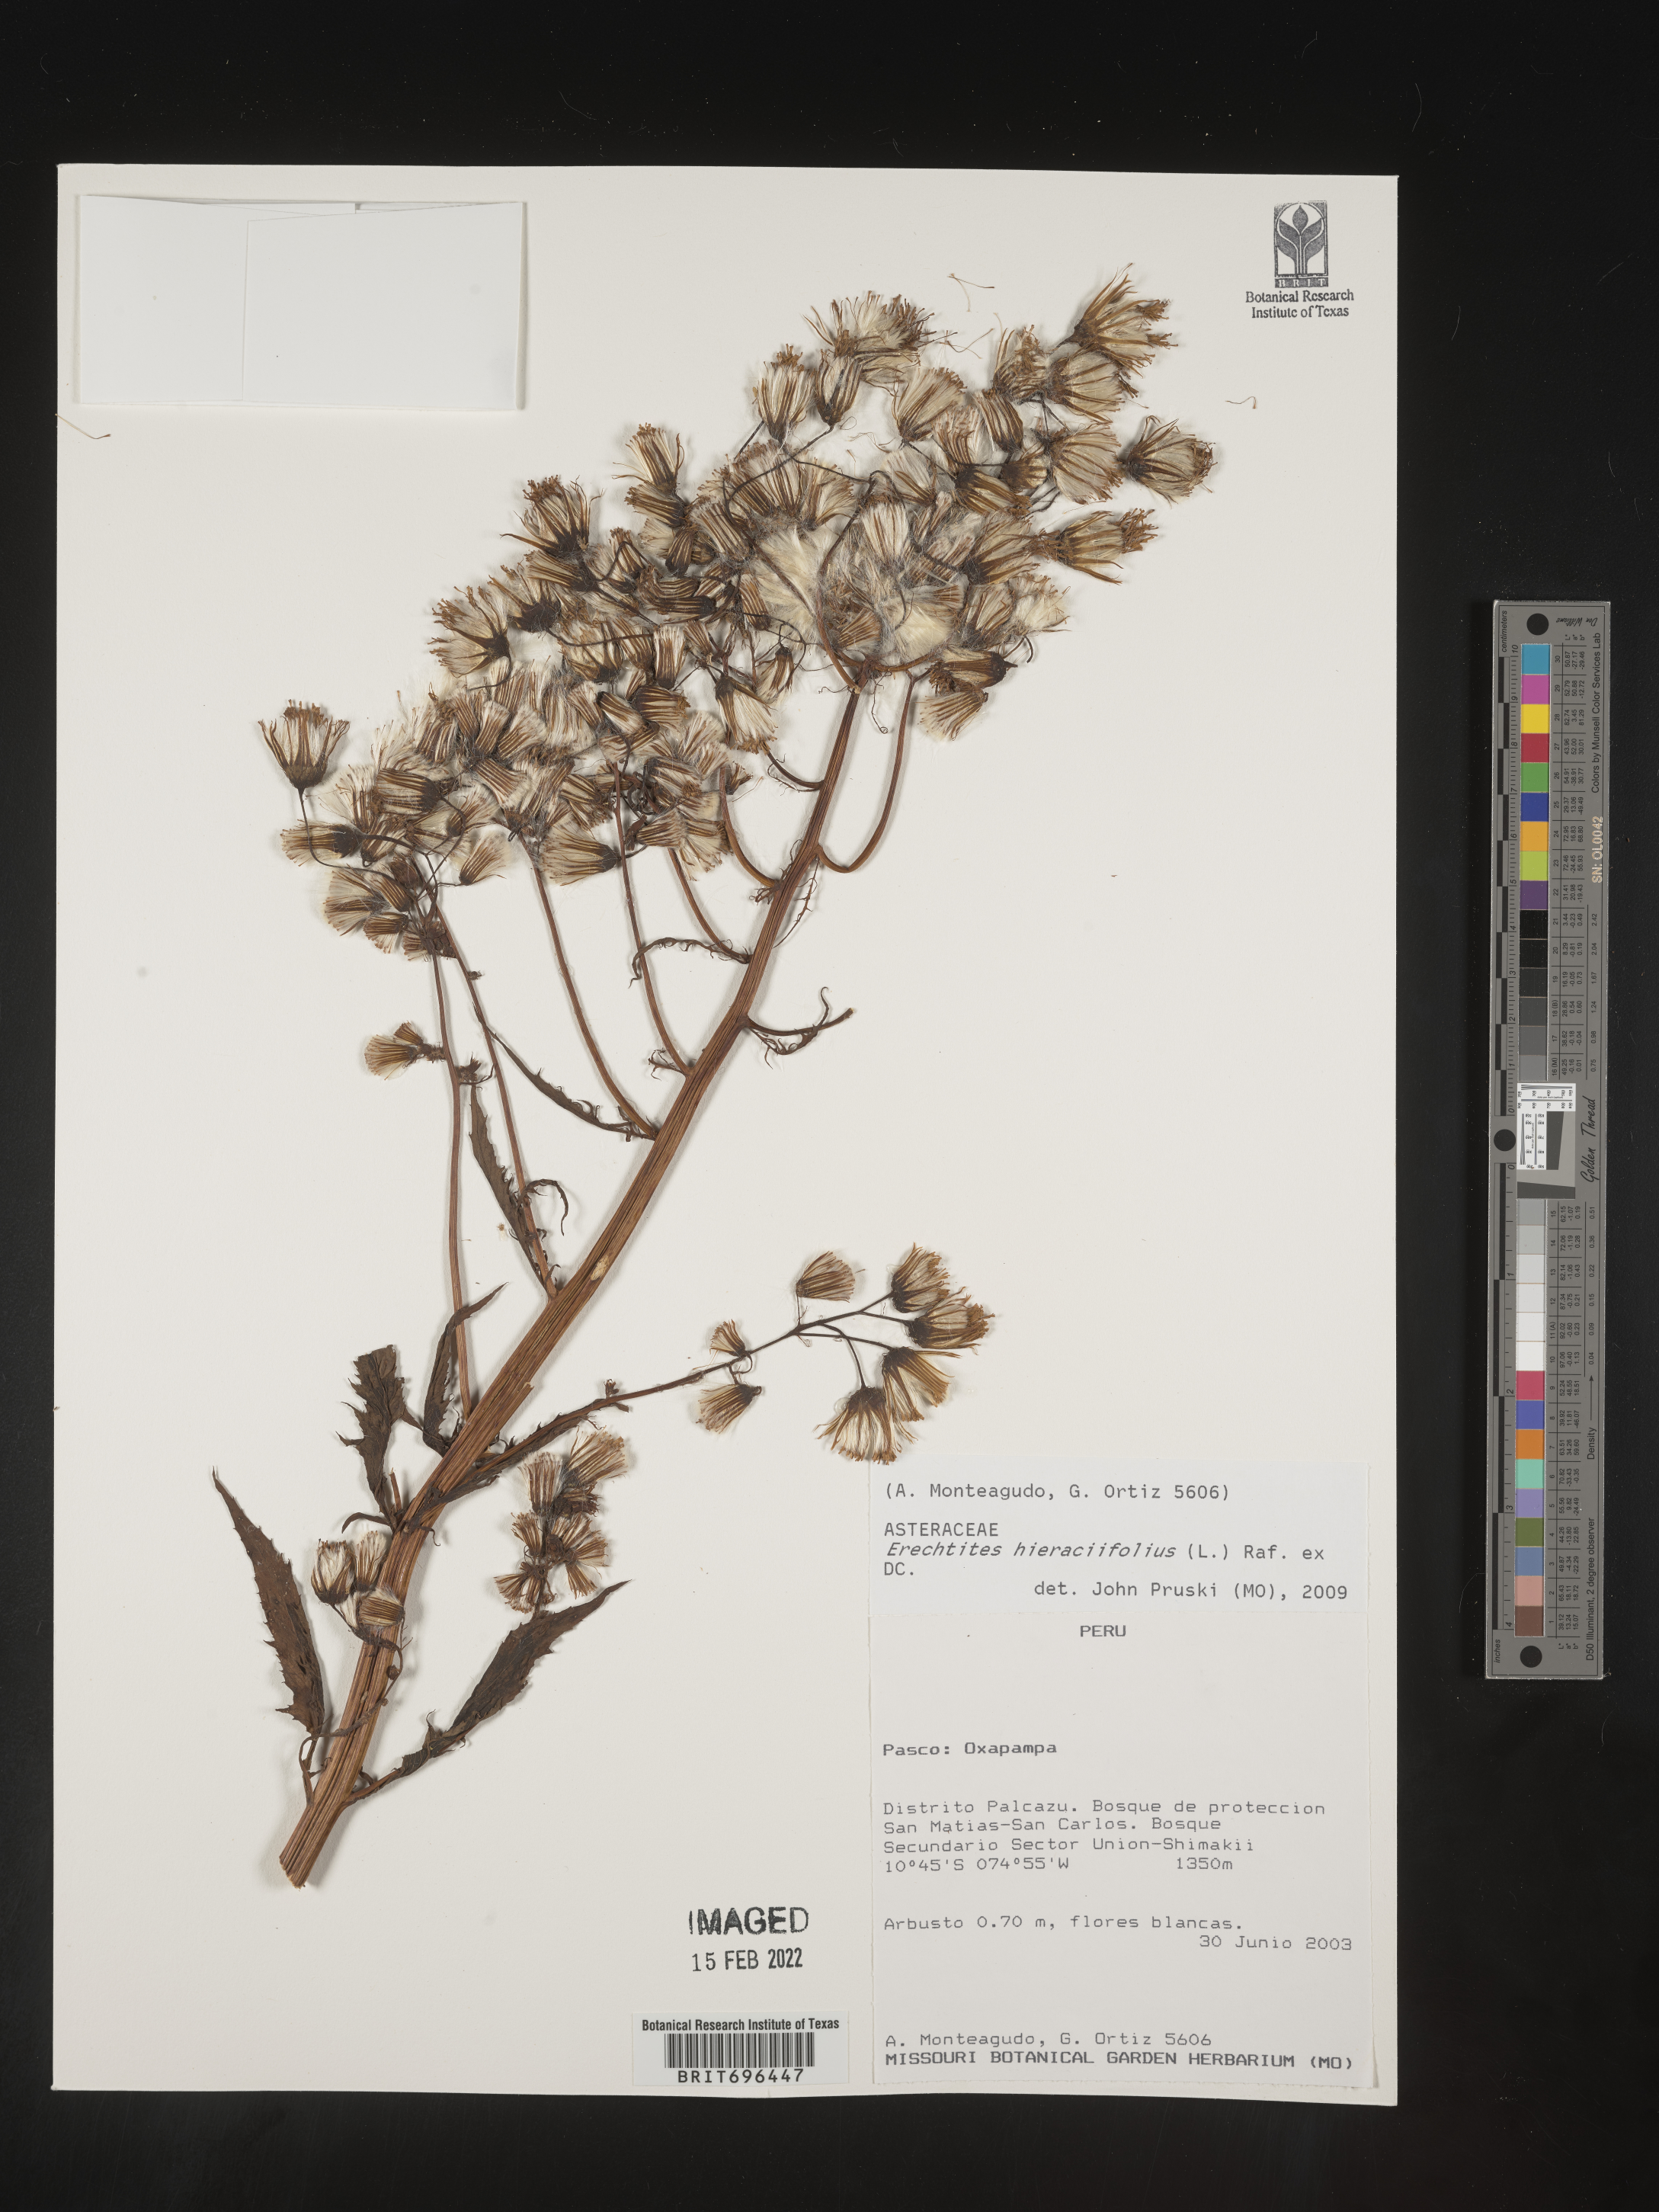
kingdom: Plantae
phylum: Tracheophyta
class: Magnoliopsida
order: Asterales
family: Asteraceae
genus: Erechtites
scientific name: Erechtites
